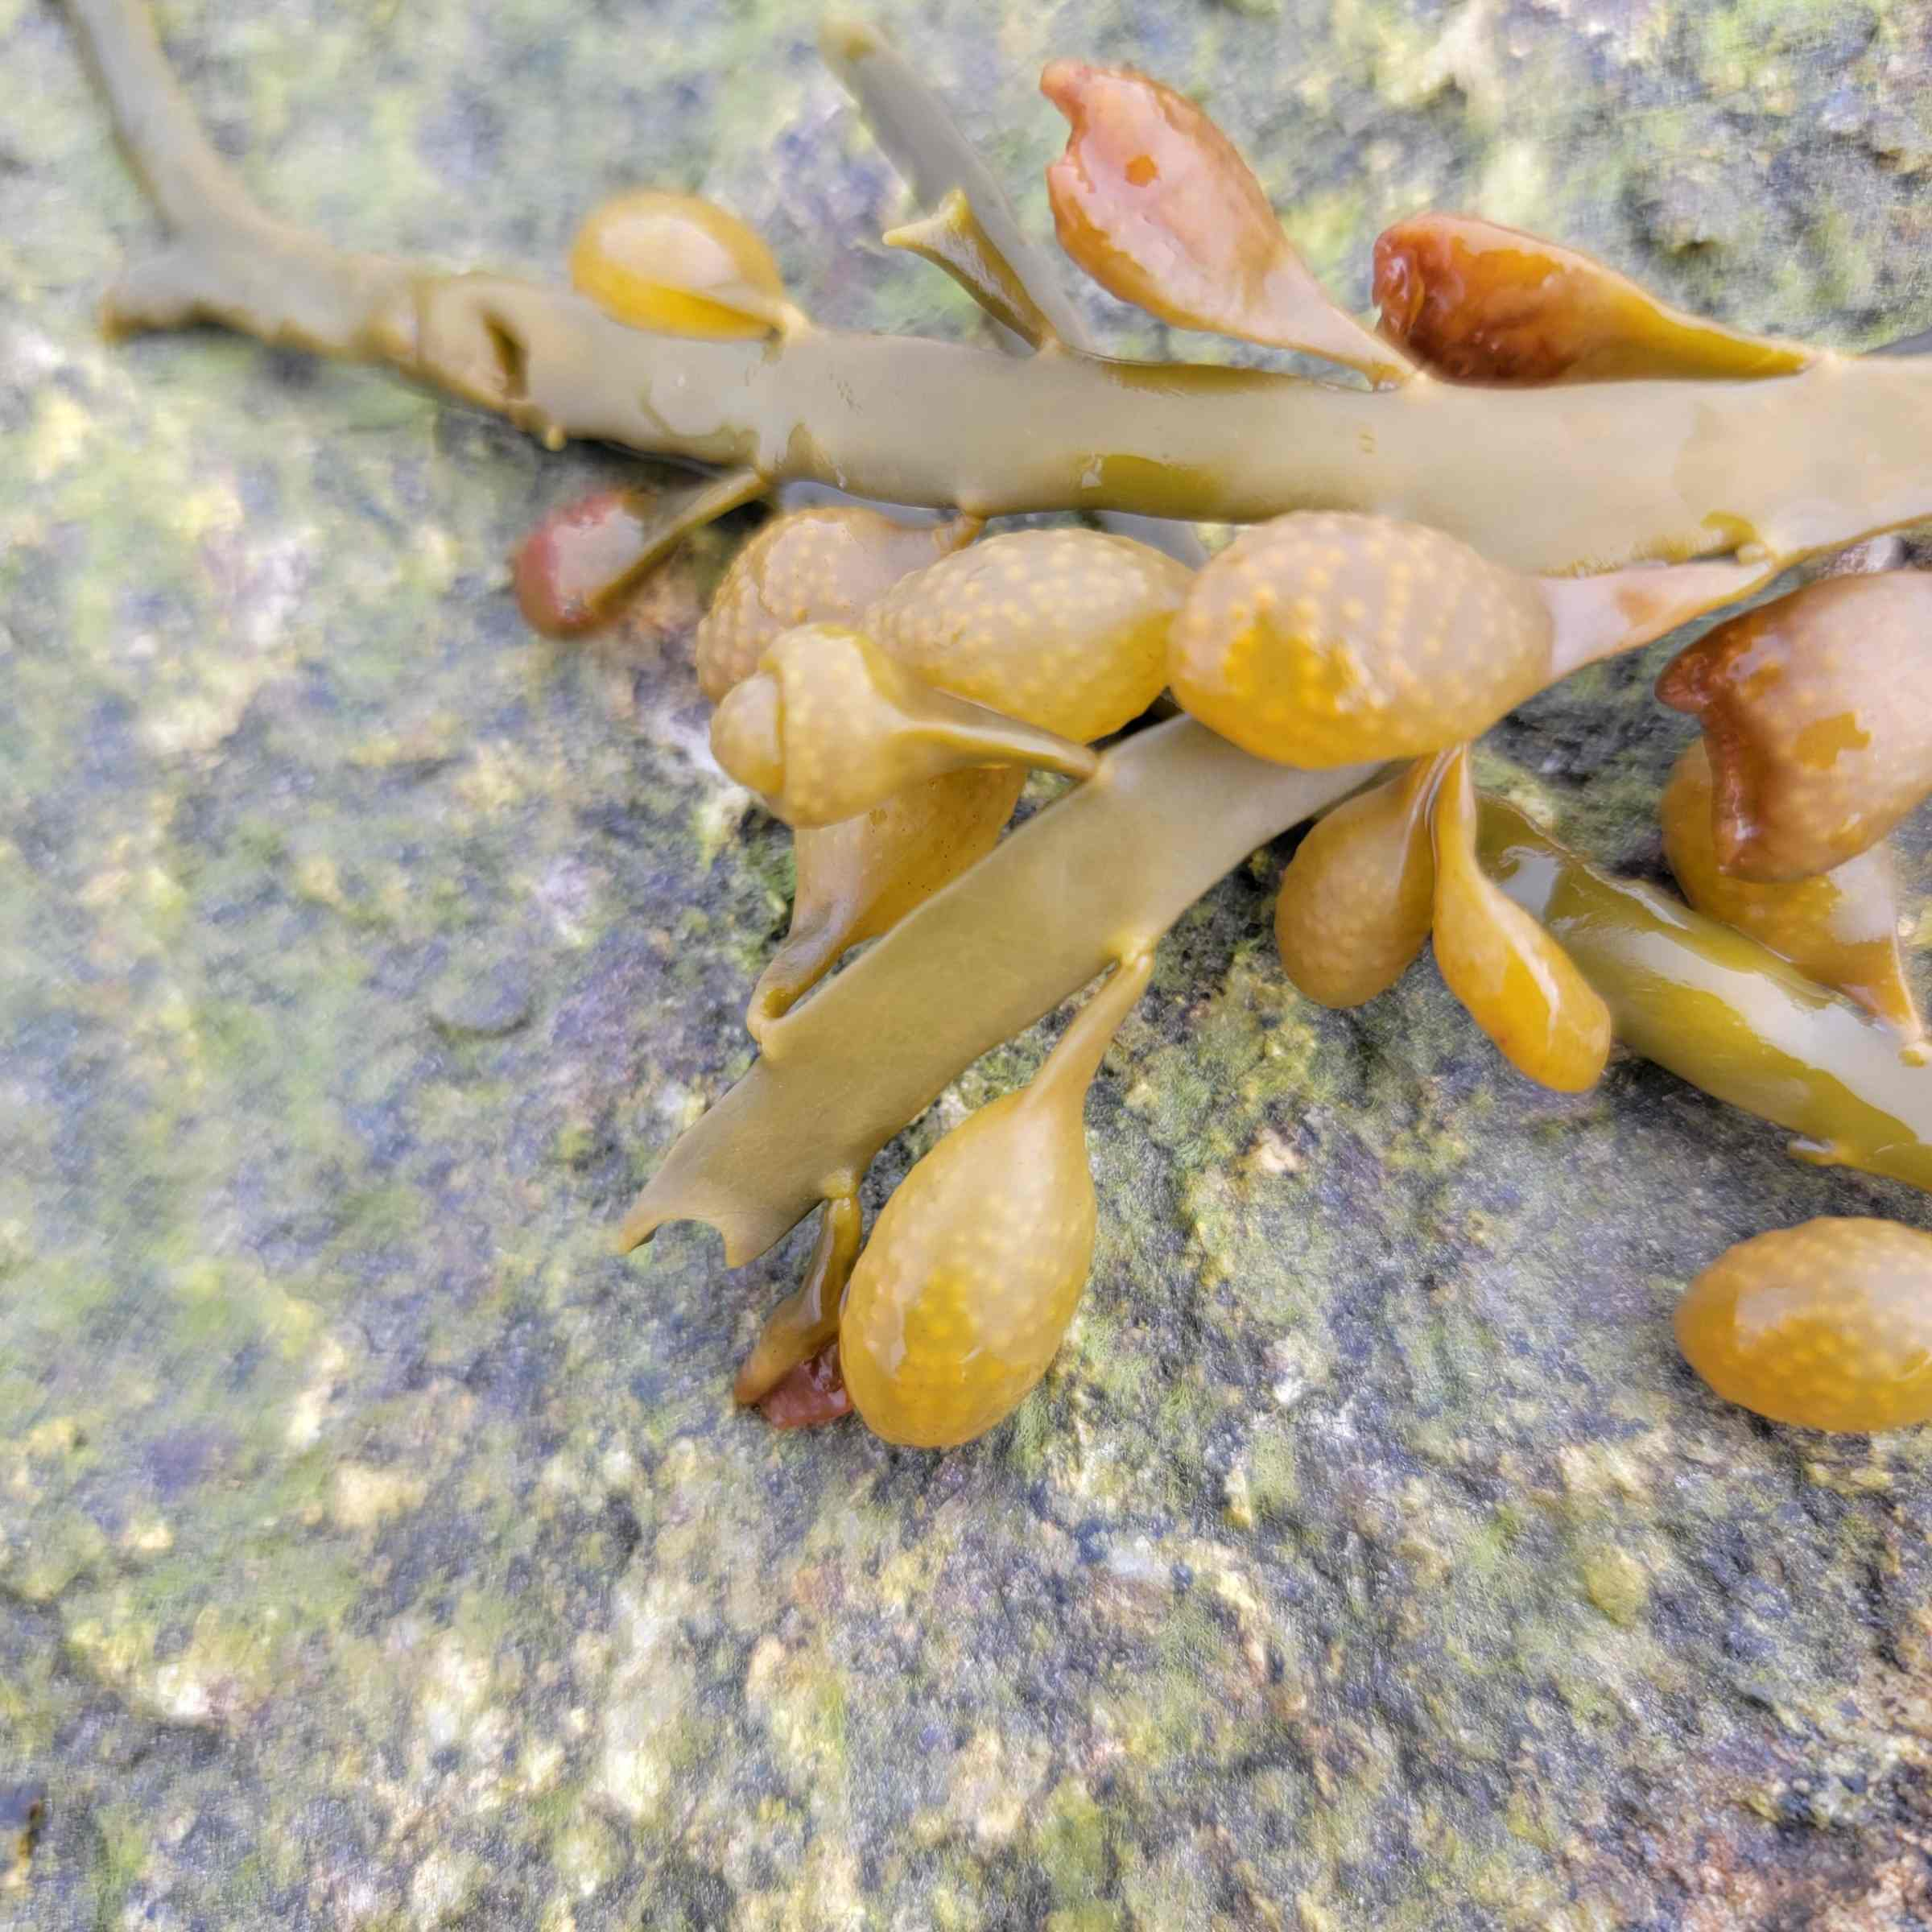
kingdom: Chromista
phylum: Ochrophyta
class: Phaeophyceae
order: Fucales
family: Fucaceae
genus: Ascophyllum
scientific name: Ascophyllum nodosum
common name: Rockweed
